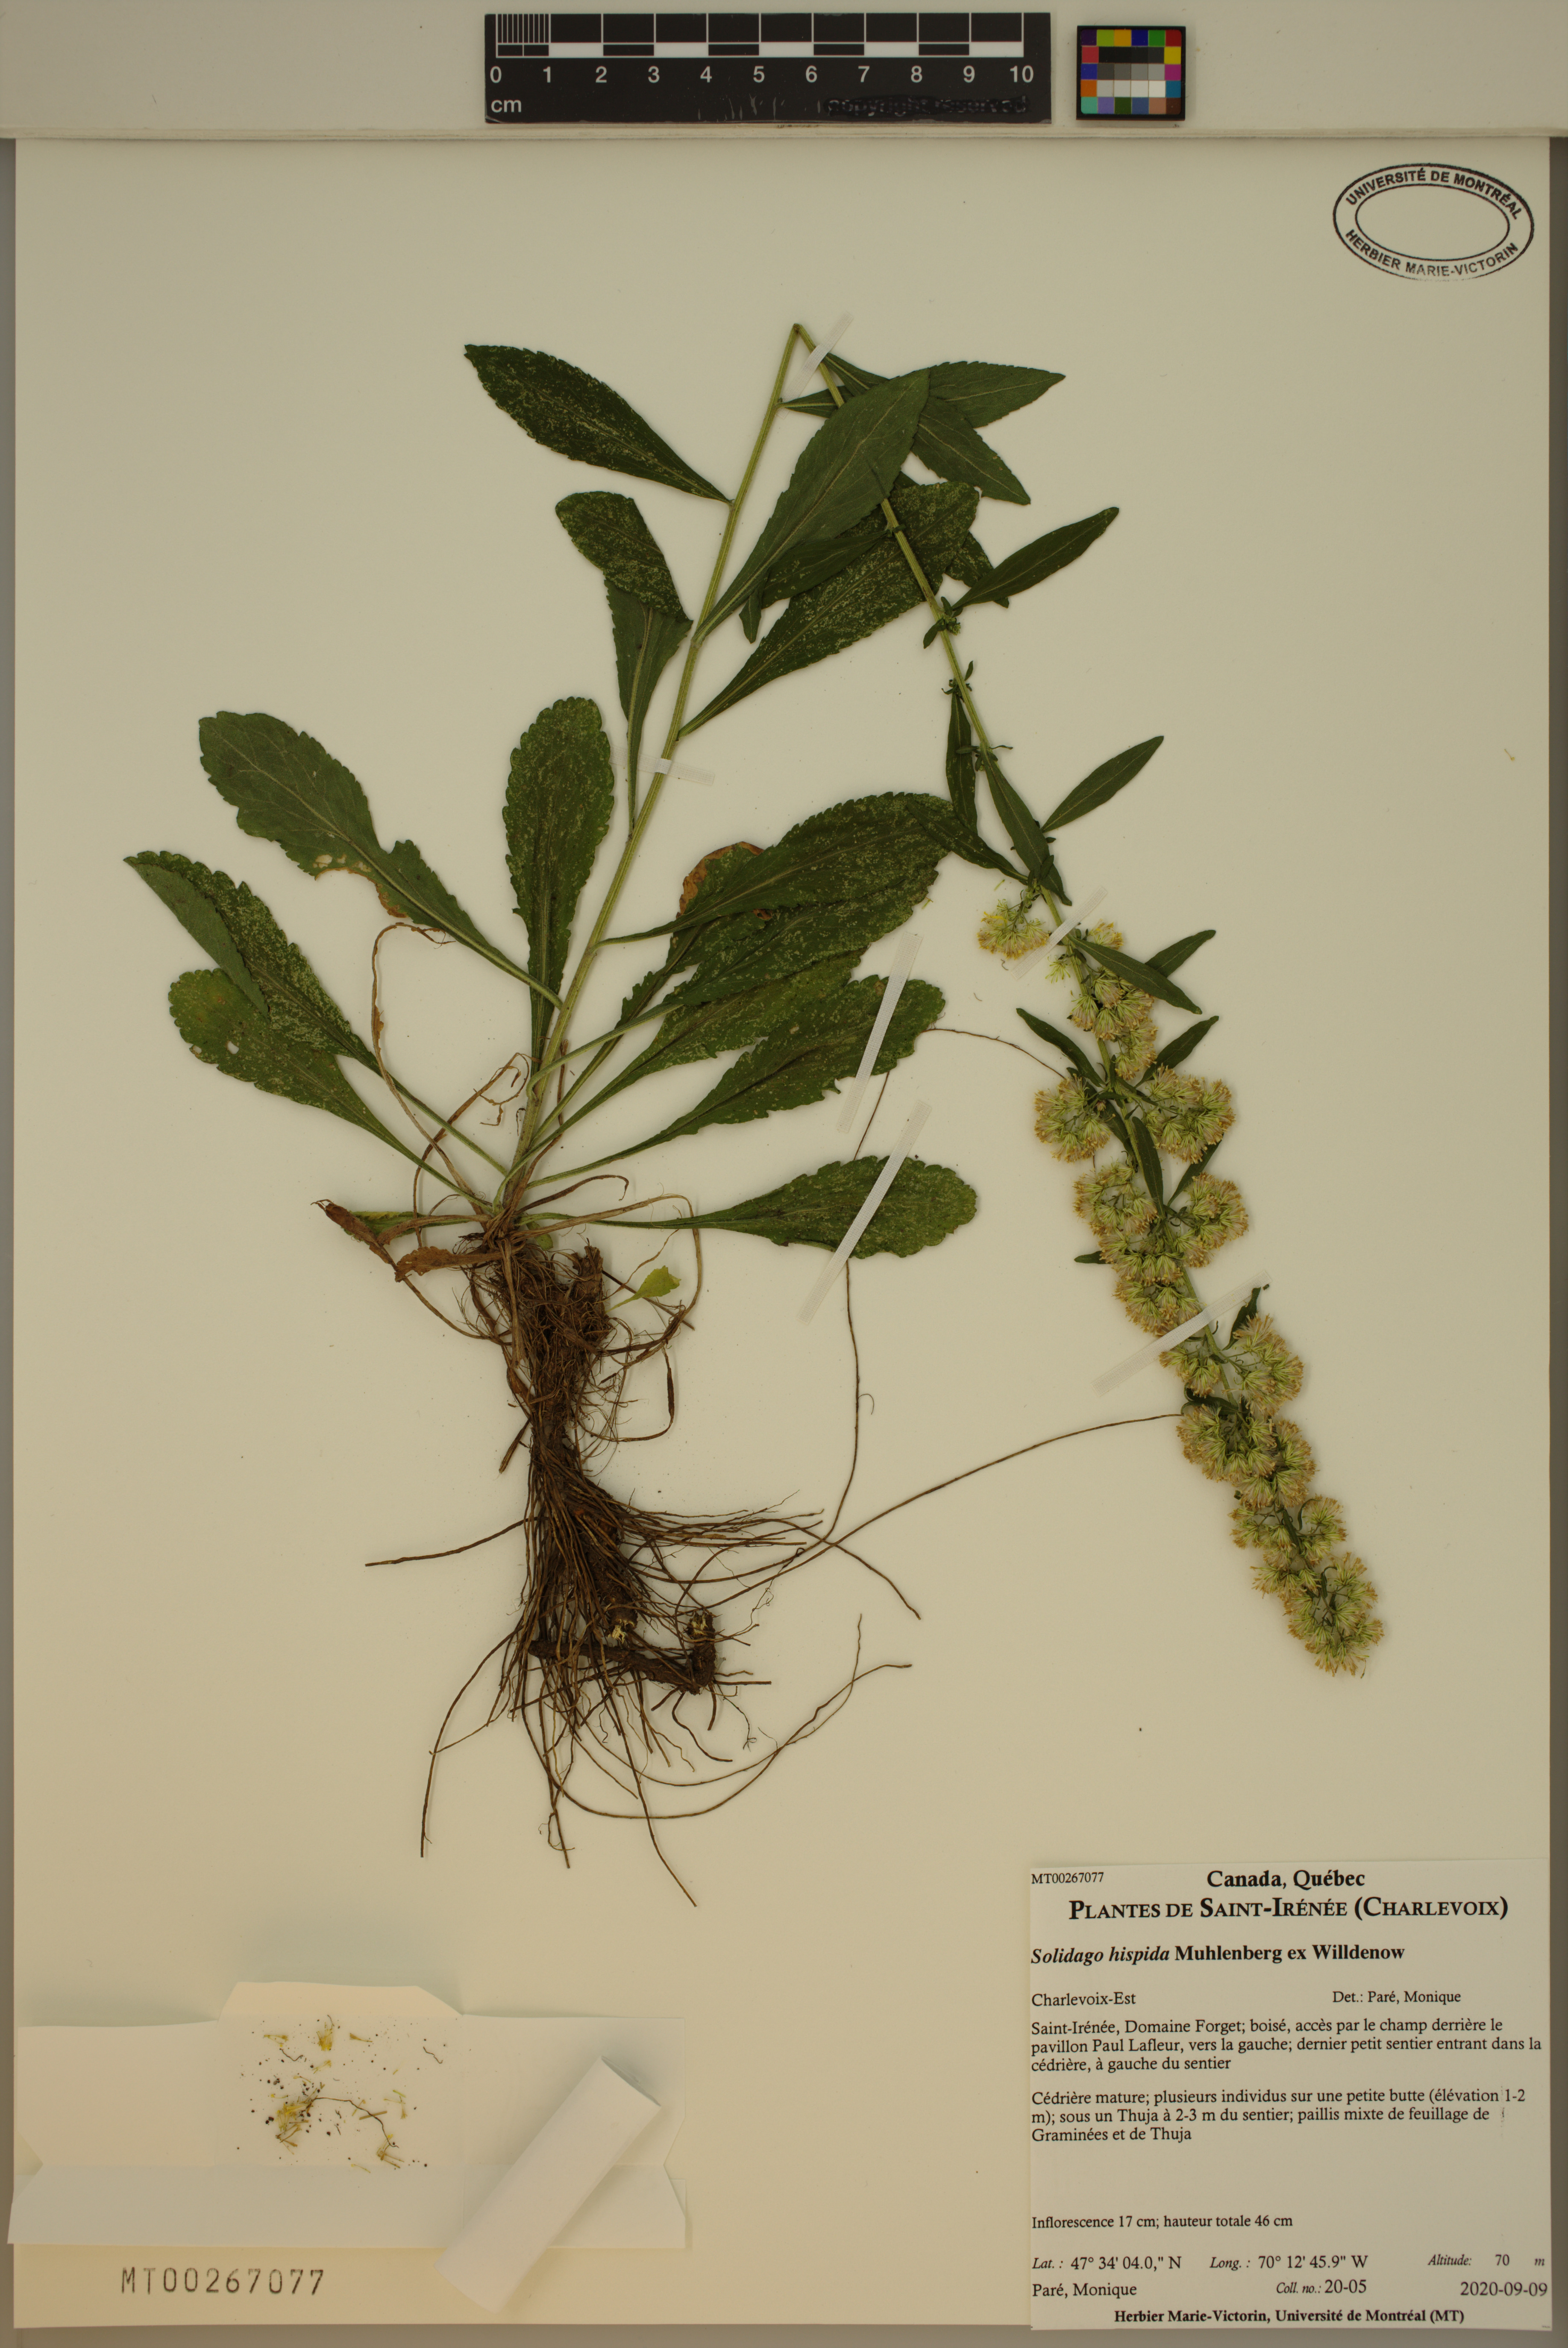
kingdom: Plantae
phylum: Tracheophyta
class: Magnoliopsida
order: Asterales
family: Asteraceae
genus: Solidago
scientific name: Solidago hispida
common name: Hairy goldenrod
